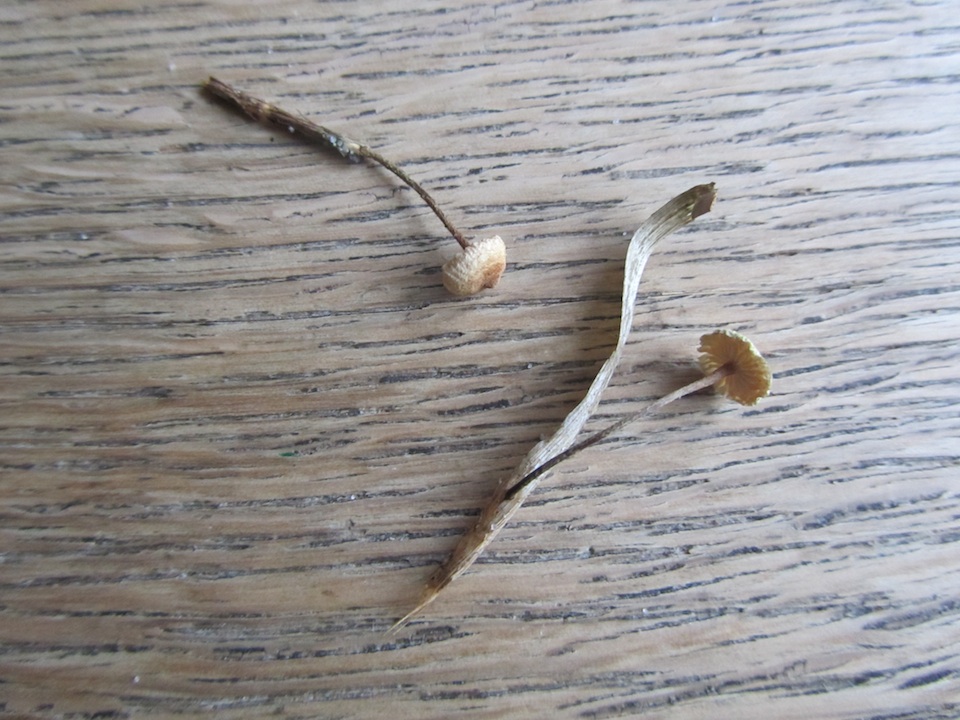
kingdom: Fungi
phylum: Basidiomycota
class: Agaricomycetes
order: Agaricales
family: Marasmiaceae
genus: Crinipellis
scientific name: Crinipellis scabella
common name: børstefod
